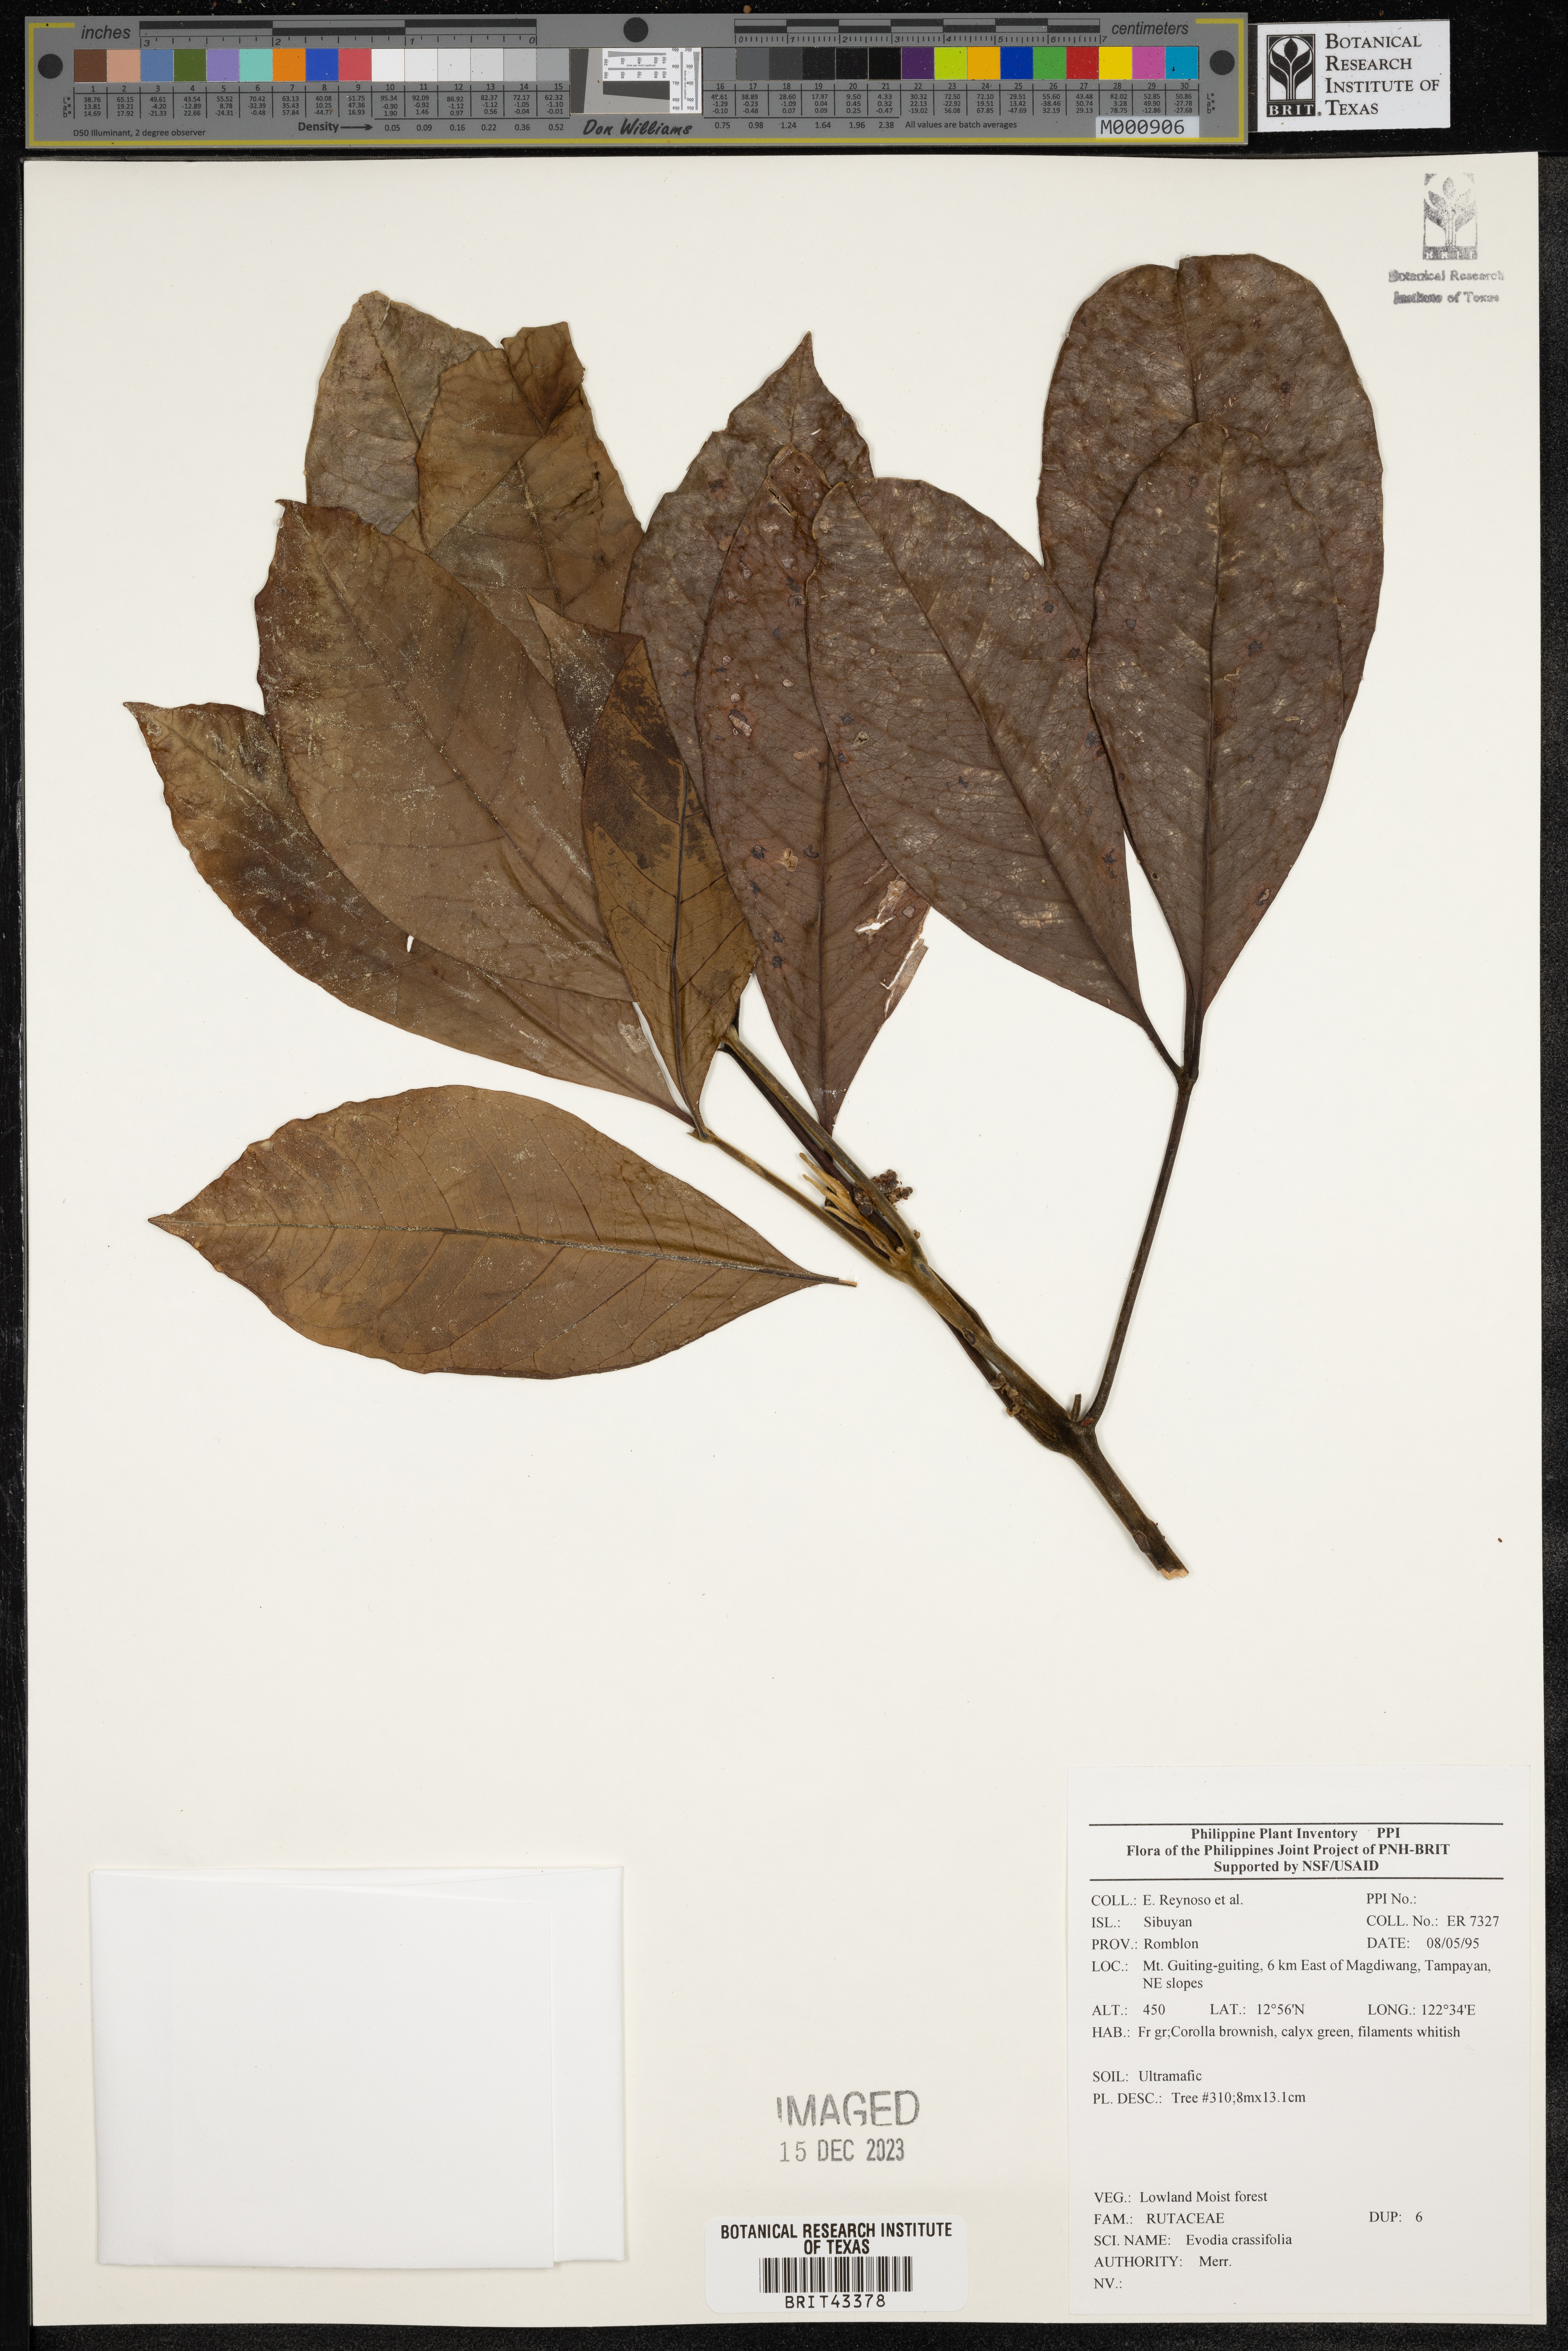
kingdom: Plantae
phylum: Tracheophyta
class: Magnoliopsida
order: Sapindales
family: Rutaceae
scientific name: Rutaceae
